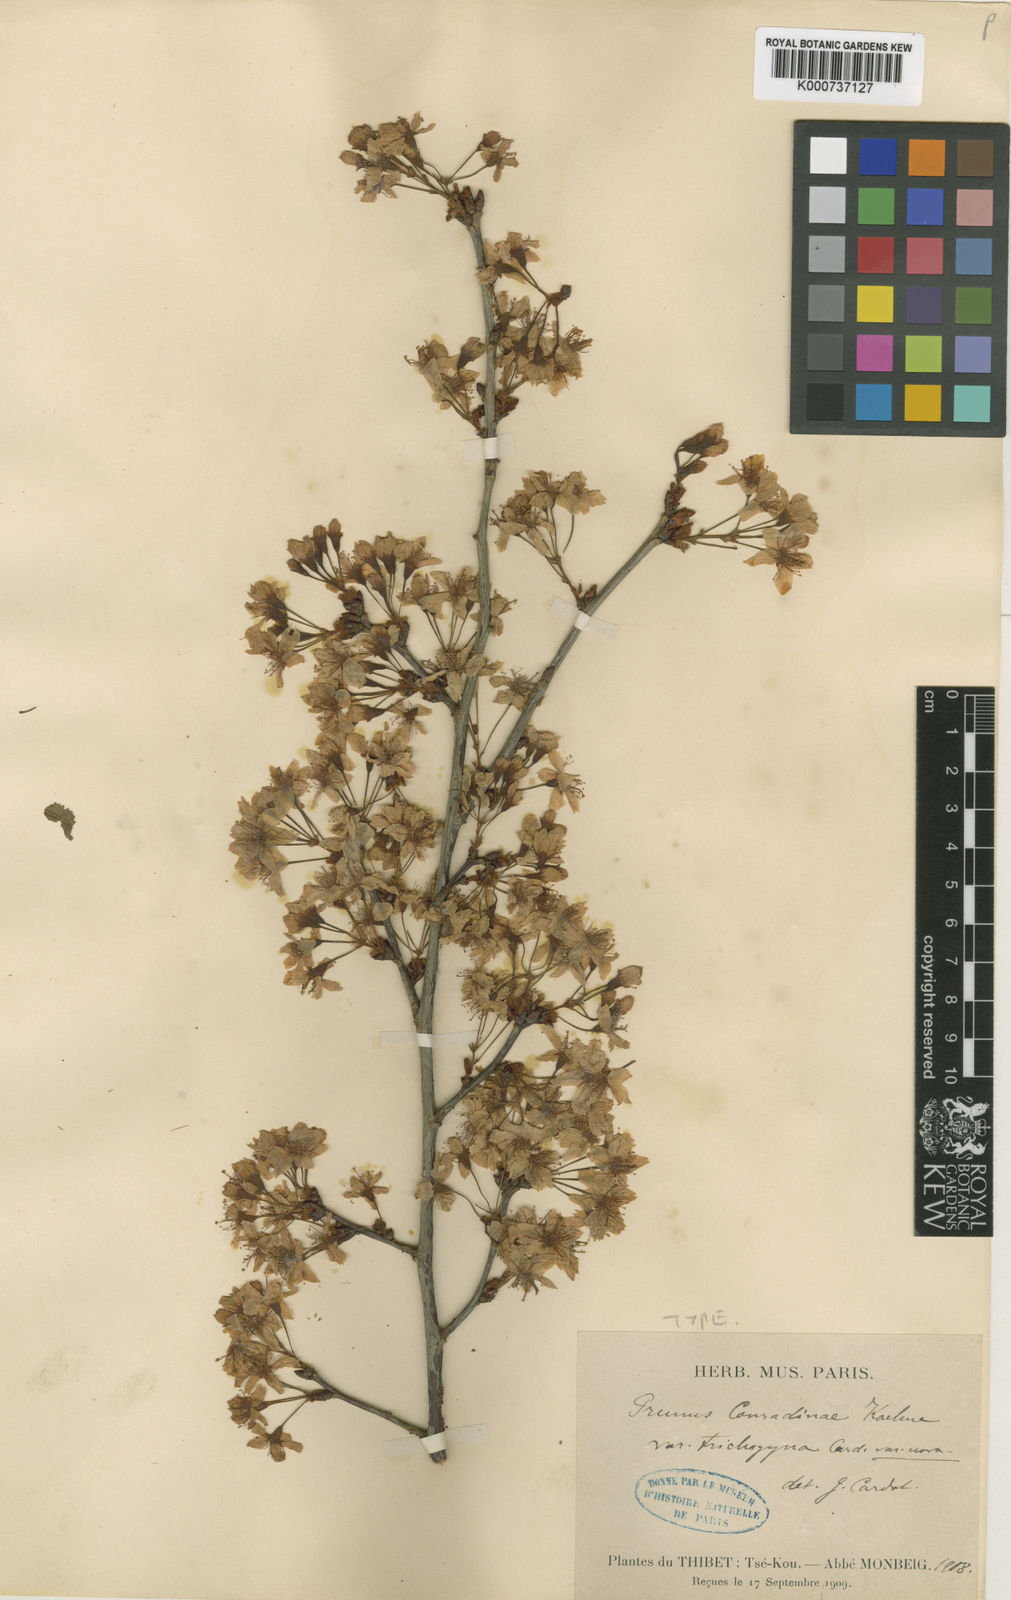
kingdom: Plantae
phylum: Tracheophyta
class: Magnoliopsida
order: Rosales
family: Rosaceae
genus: Prunus
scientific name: Prunus conradinae
